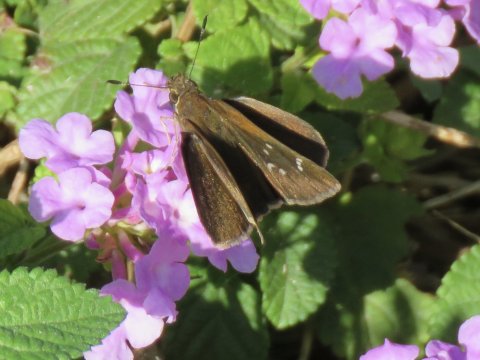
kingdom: Animalia
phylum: Arthropoda
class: Insecta
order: Lepidoptera
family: Hesperiidae
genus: Lerema
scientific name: Lerema accius
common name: Clouded Skipper
